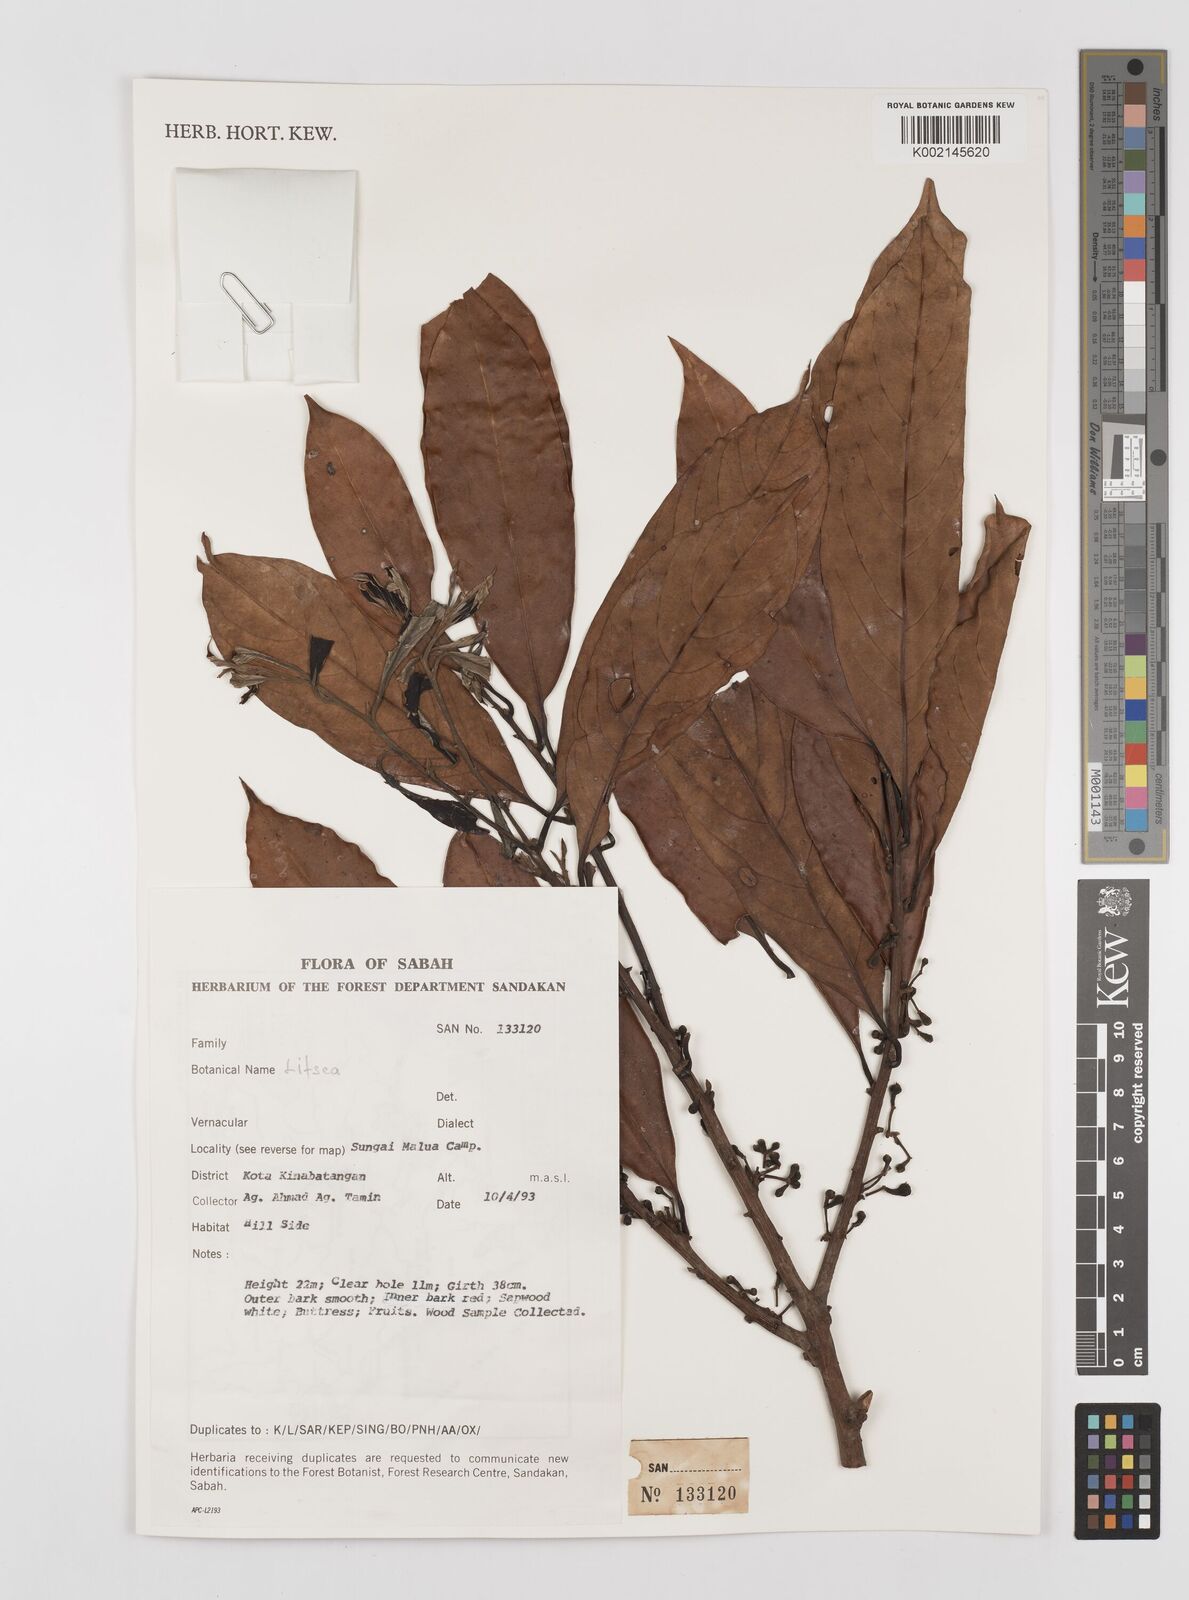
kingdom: Plantae
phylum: Tracheophyta
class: Magnoliopsida
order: Laurales
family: Lauraceae
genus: Litsea
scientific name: Litsea
